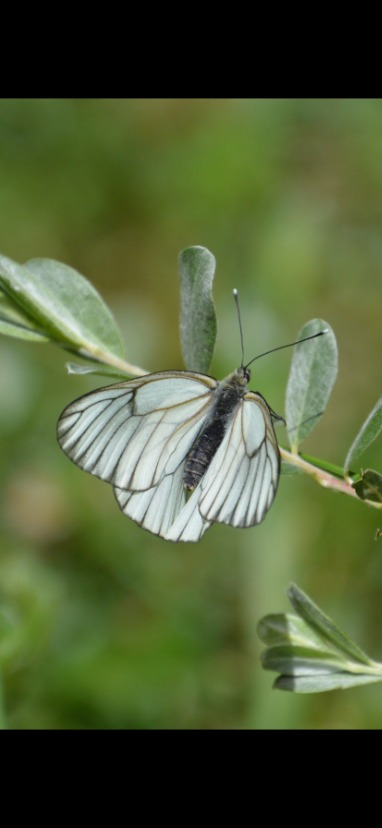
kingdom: Animalia
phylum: Arthropoda
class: Insecta
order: Lepidoptera
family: Pieridae
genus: Aporia
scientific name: Aporia crataegi
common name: Sortåret hvidvinge
